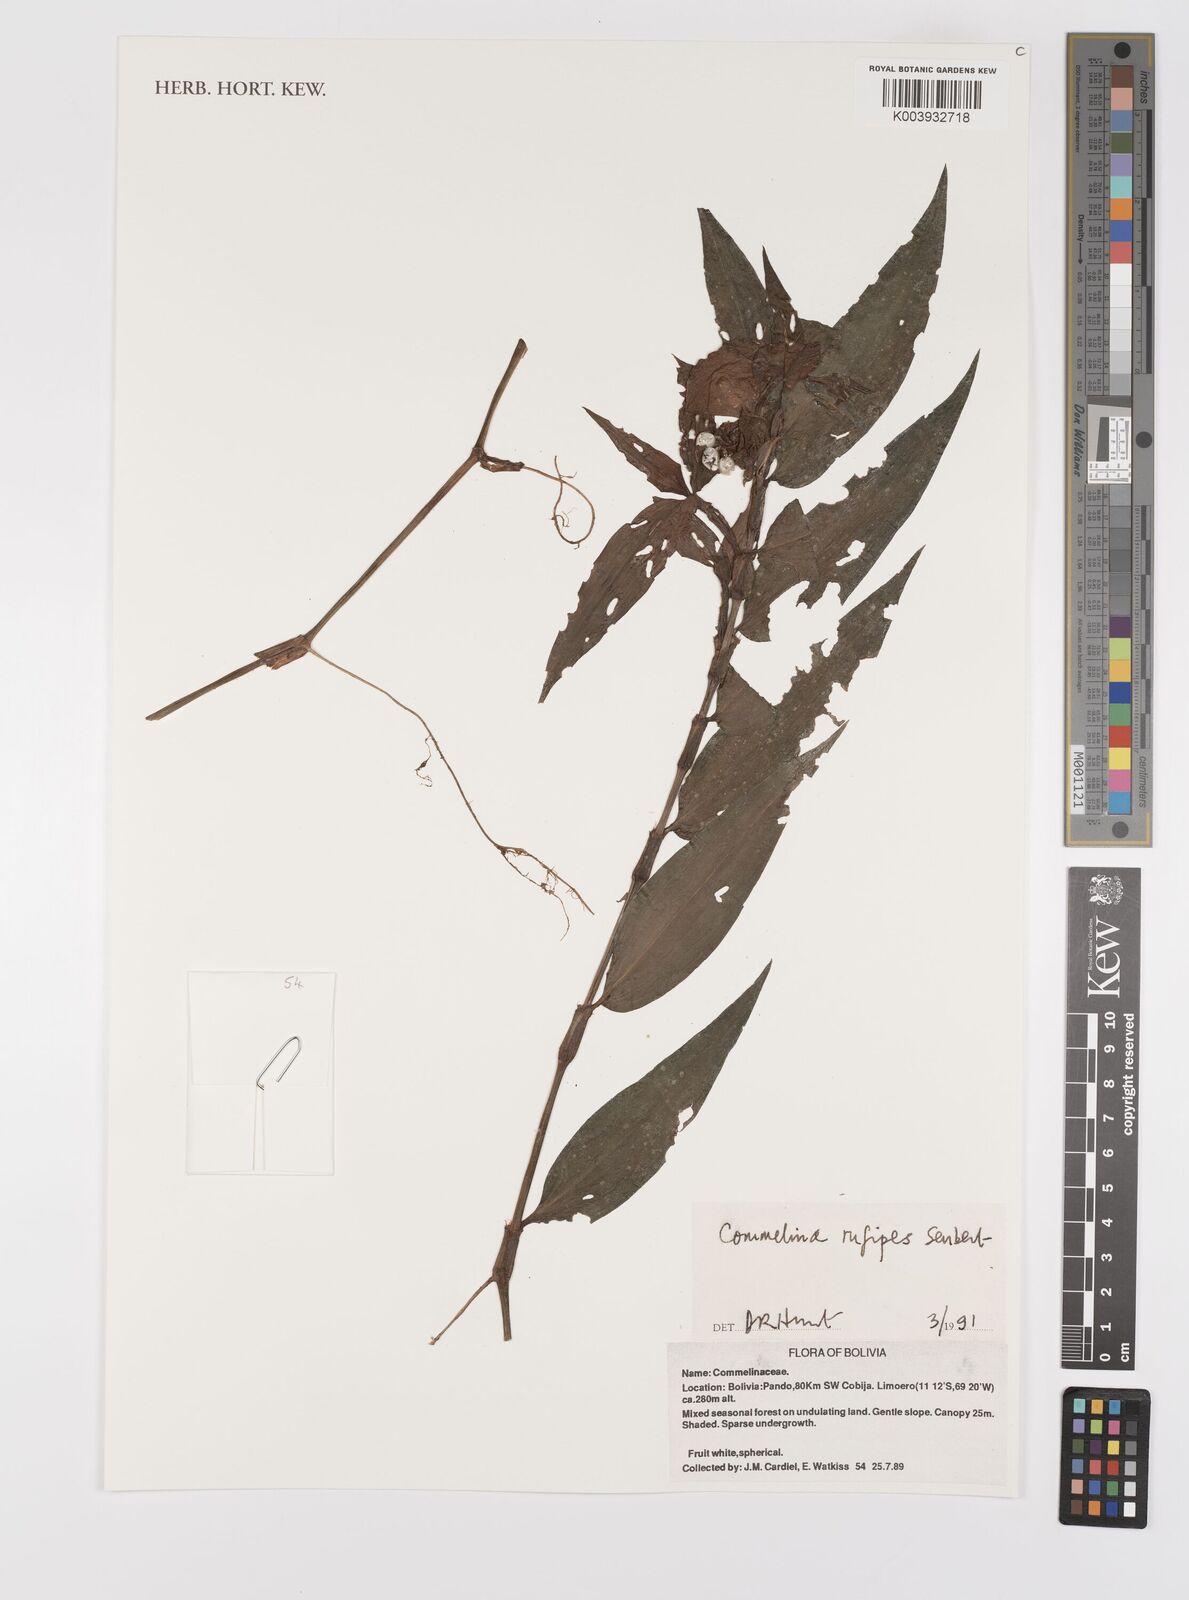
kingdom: Plantae
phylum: Tracheophyta
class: Liliopsida
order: Commelinales
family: Commelinaceae
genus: Commelina
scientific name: Commelina rufipes
